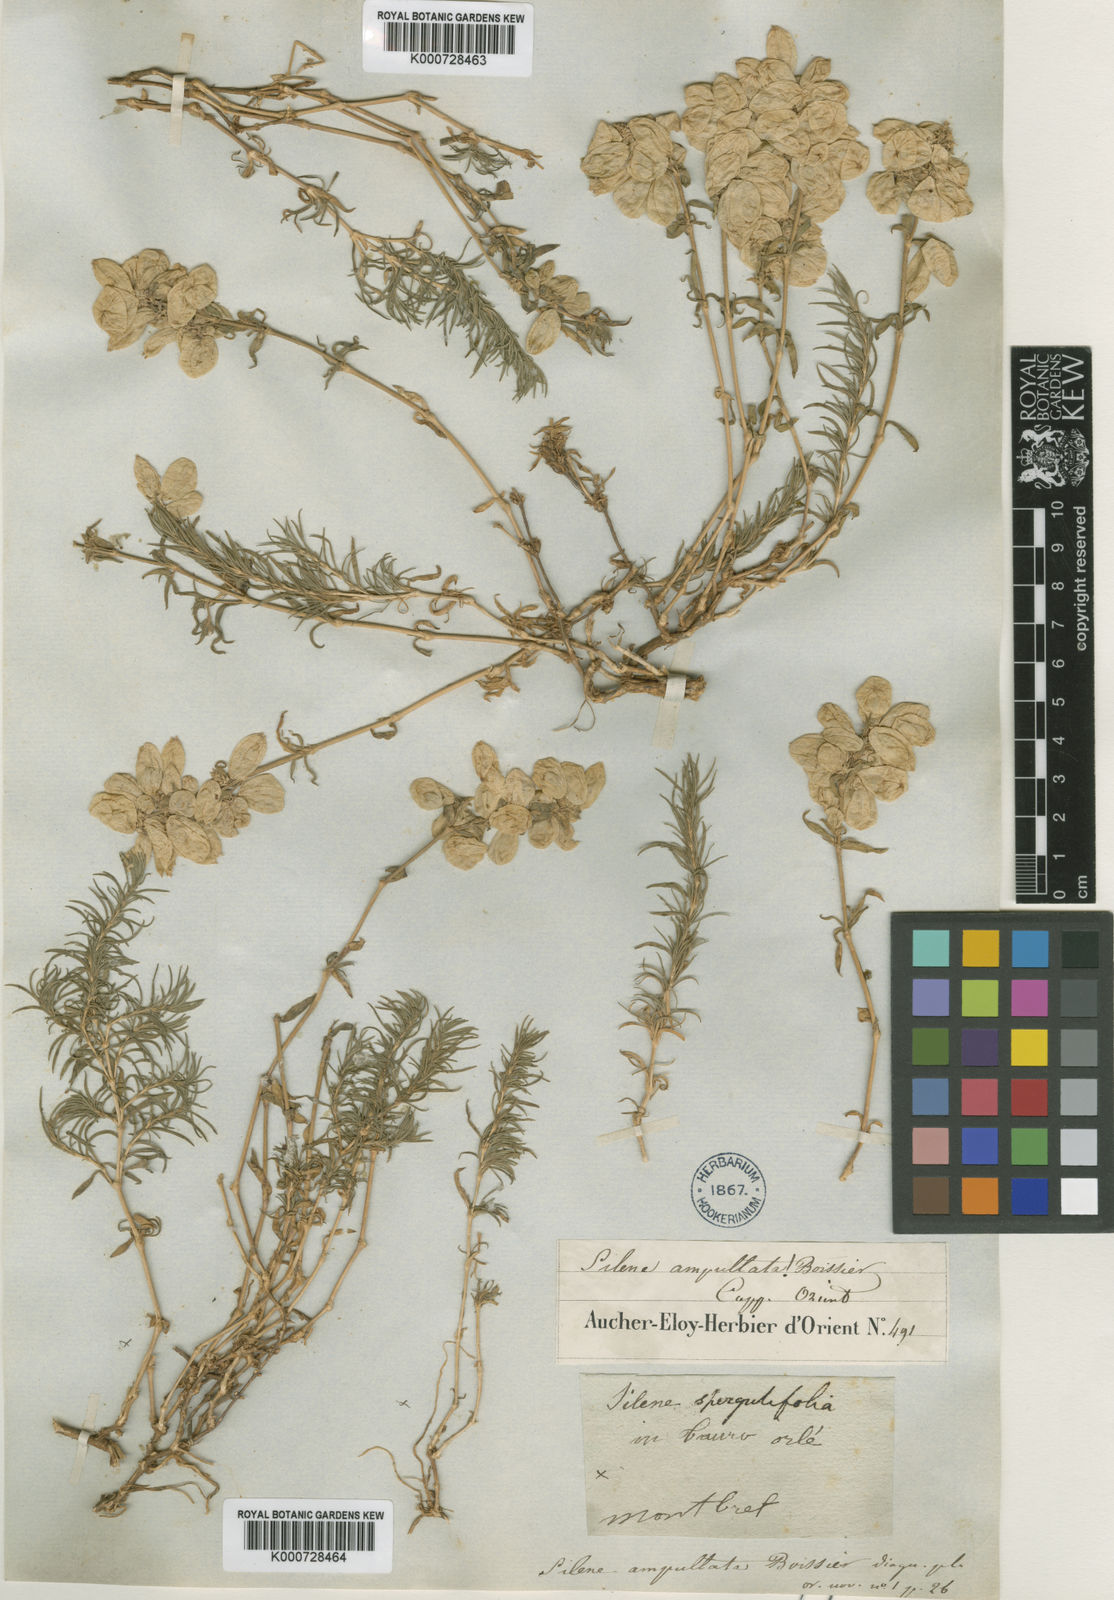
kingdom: Plantae
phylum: Tracheophyta
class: Magnoliopsida
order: Caryophyllales
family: Caryophyllaceae
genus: Silene
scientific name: Silene ampullata
